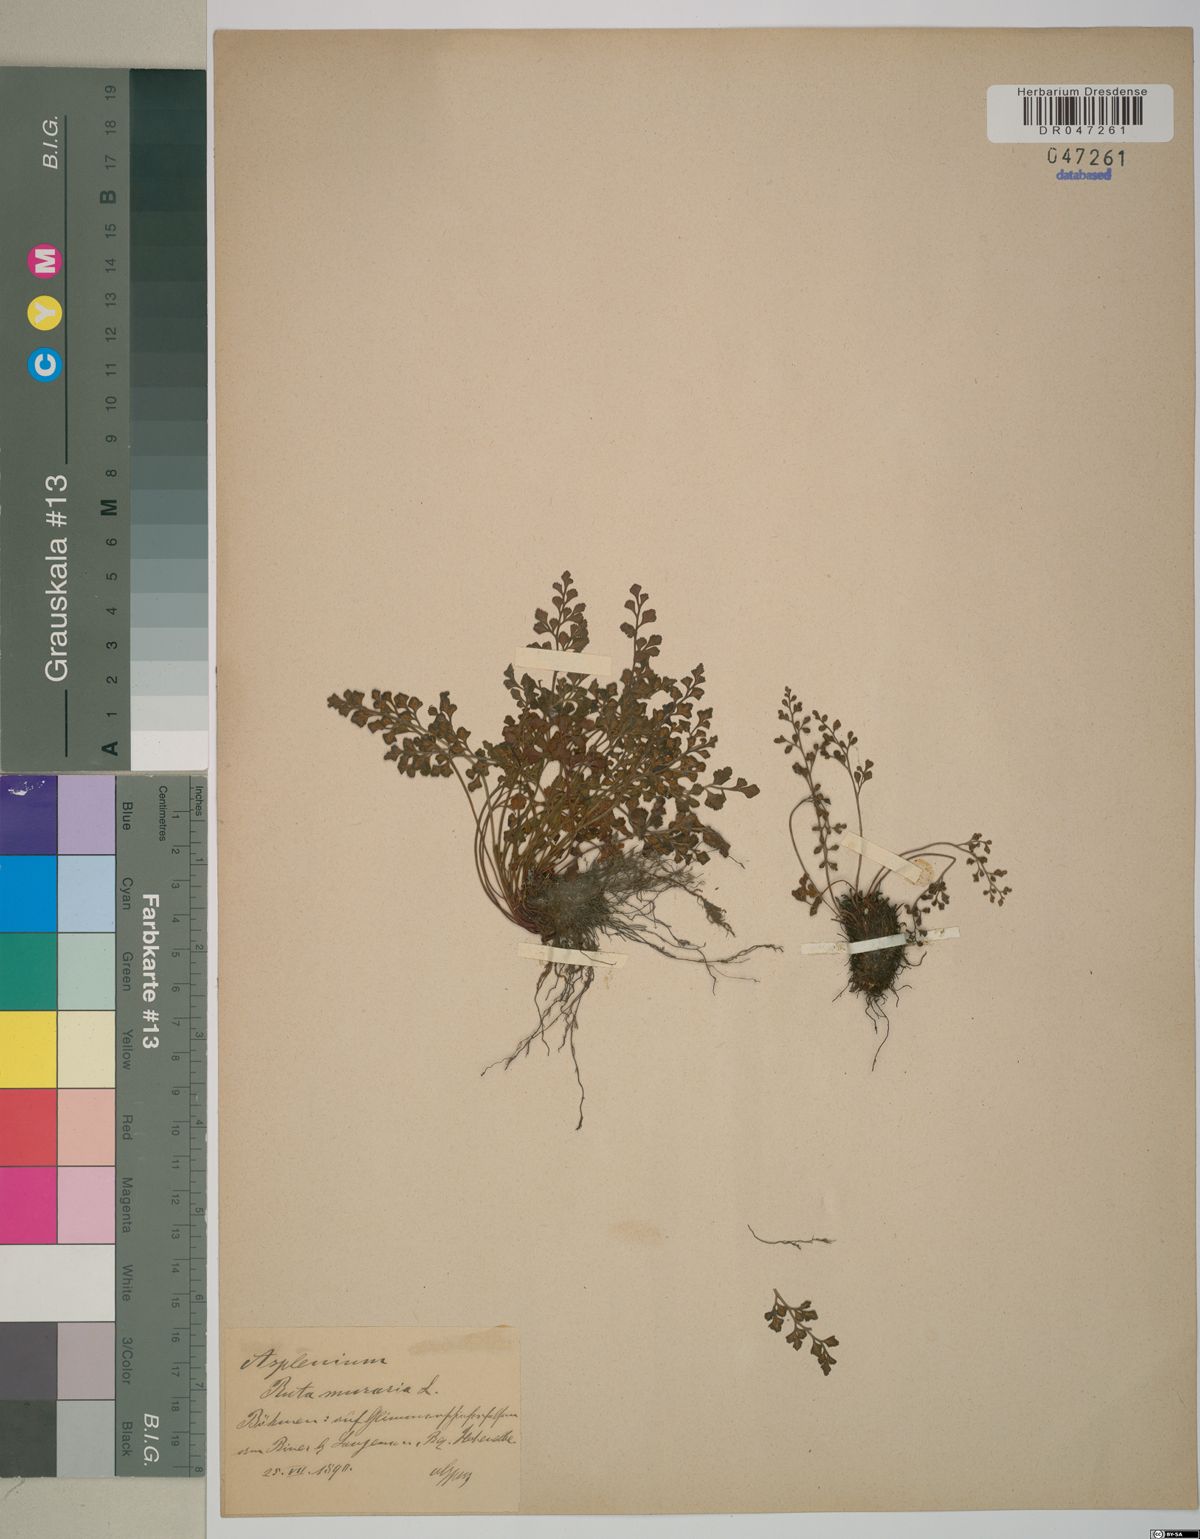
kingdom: Plantae
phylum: Tracheophyta
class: Polypodiopsida
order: Polypodiales
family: Aspleniaceae
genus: Asplenium
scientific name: Asplenium ruta-muraria
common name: Wall-rue
